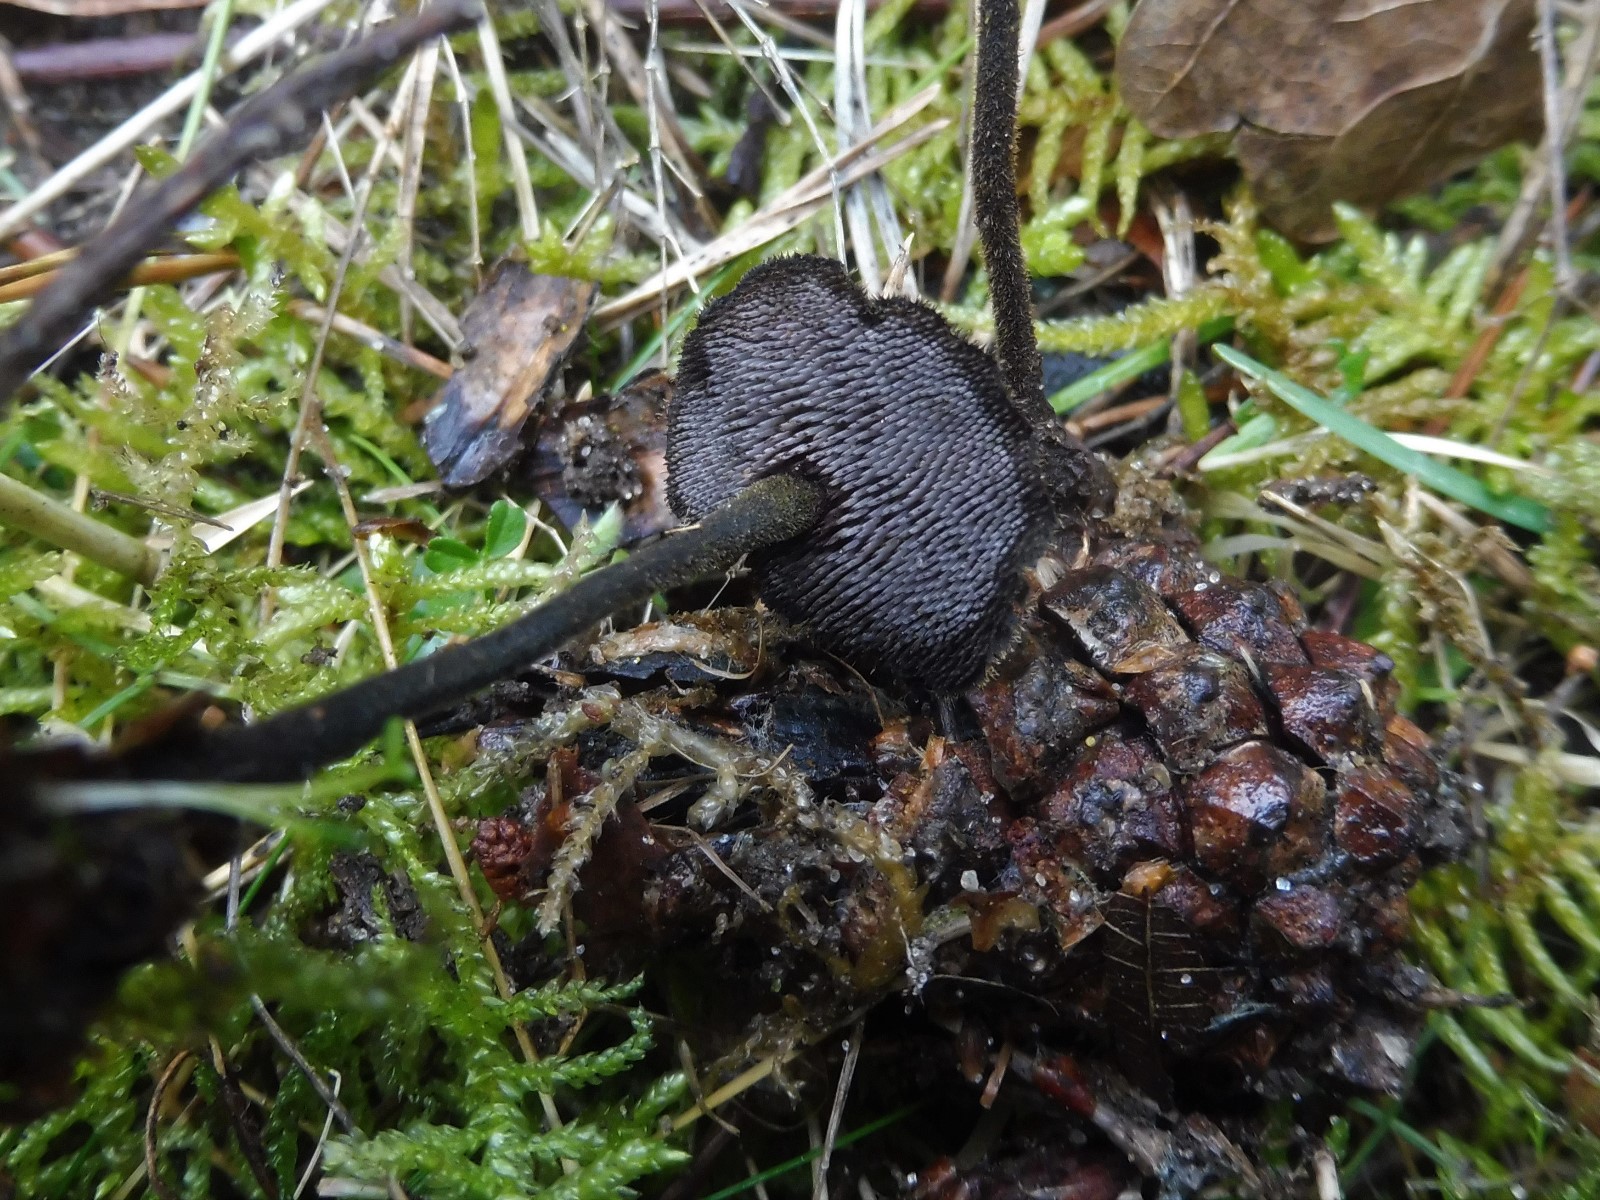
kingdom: Fungi
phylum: Basidiomycota
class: Agaricomycetes
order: Russulales
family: Auriscalpiaceae
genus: Auriscalpium
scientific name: Auriscalpium vulgare
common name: koglepigsvamp
